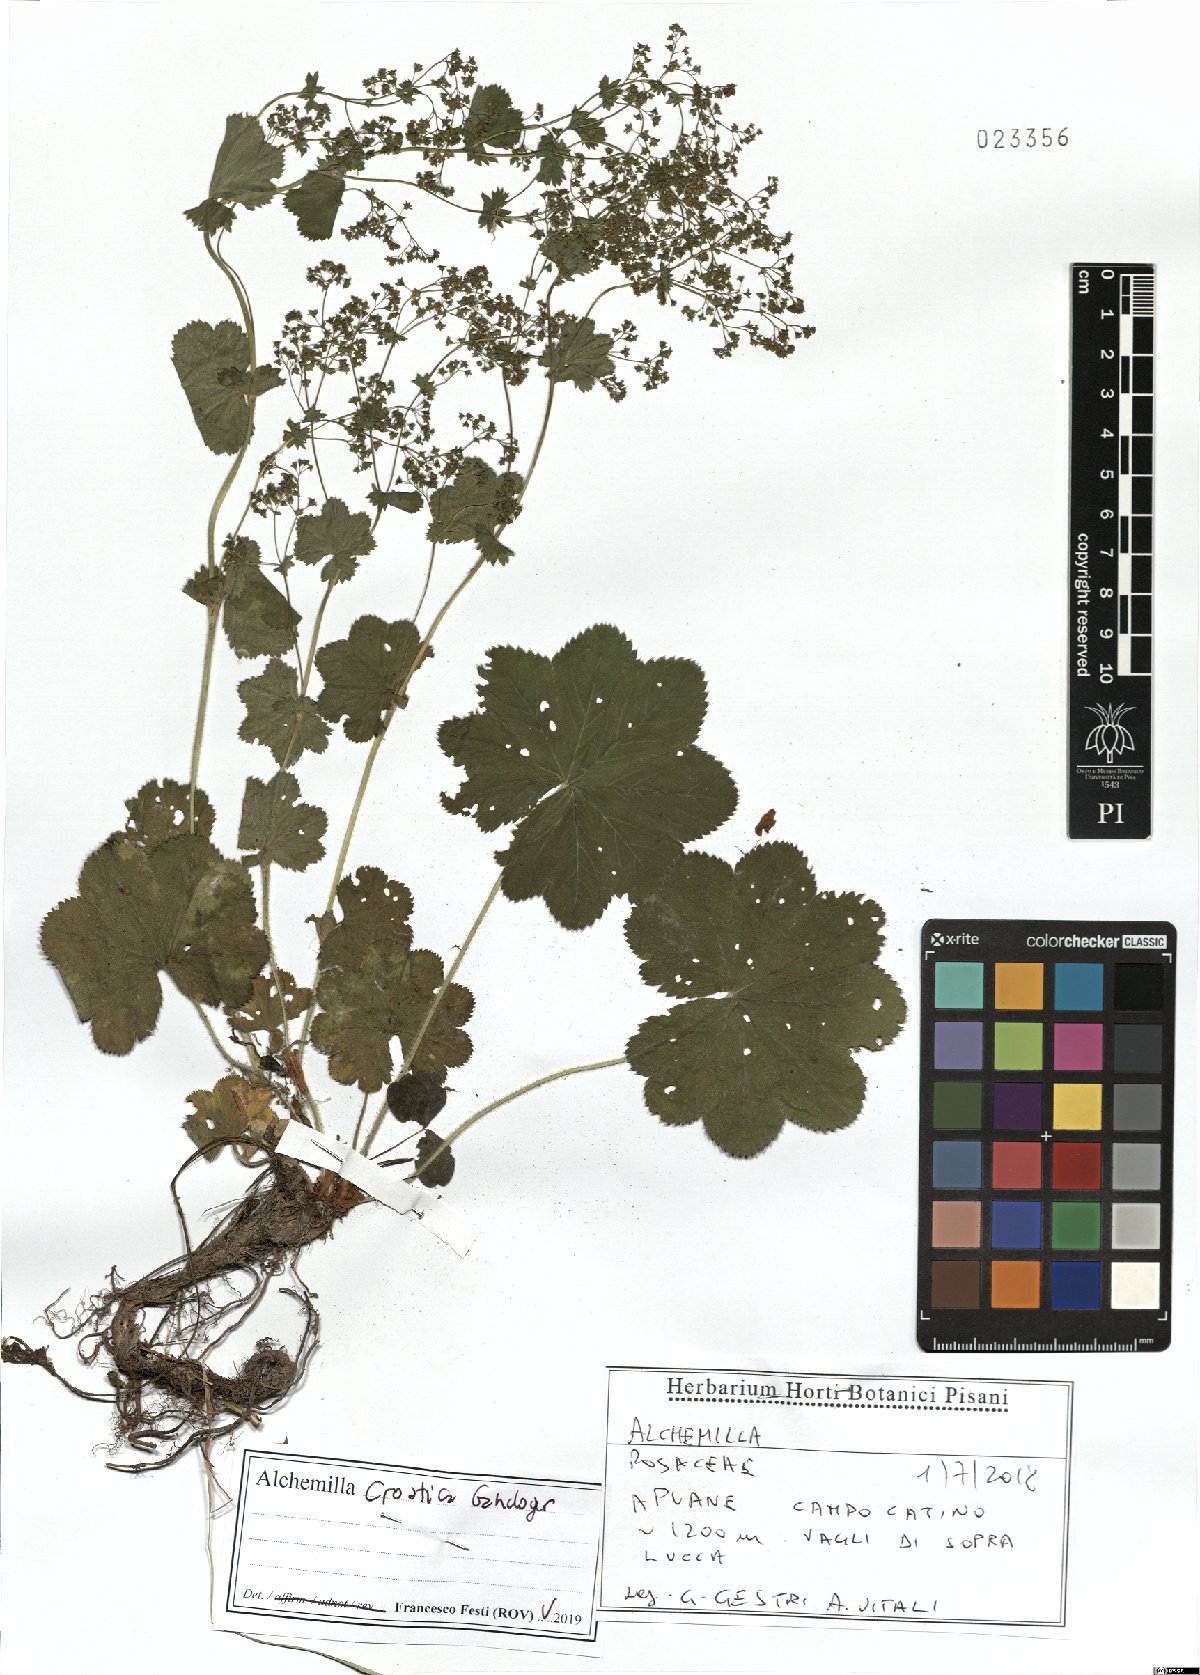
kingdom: Plantae
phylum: Tracheophyta
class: Magnoliopsida
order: Rosales
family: Rosaceae
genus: Alchemilla
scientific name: Alchemilla croatica
